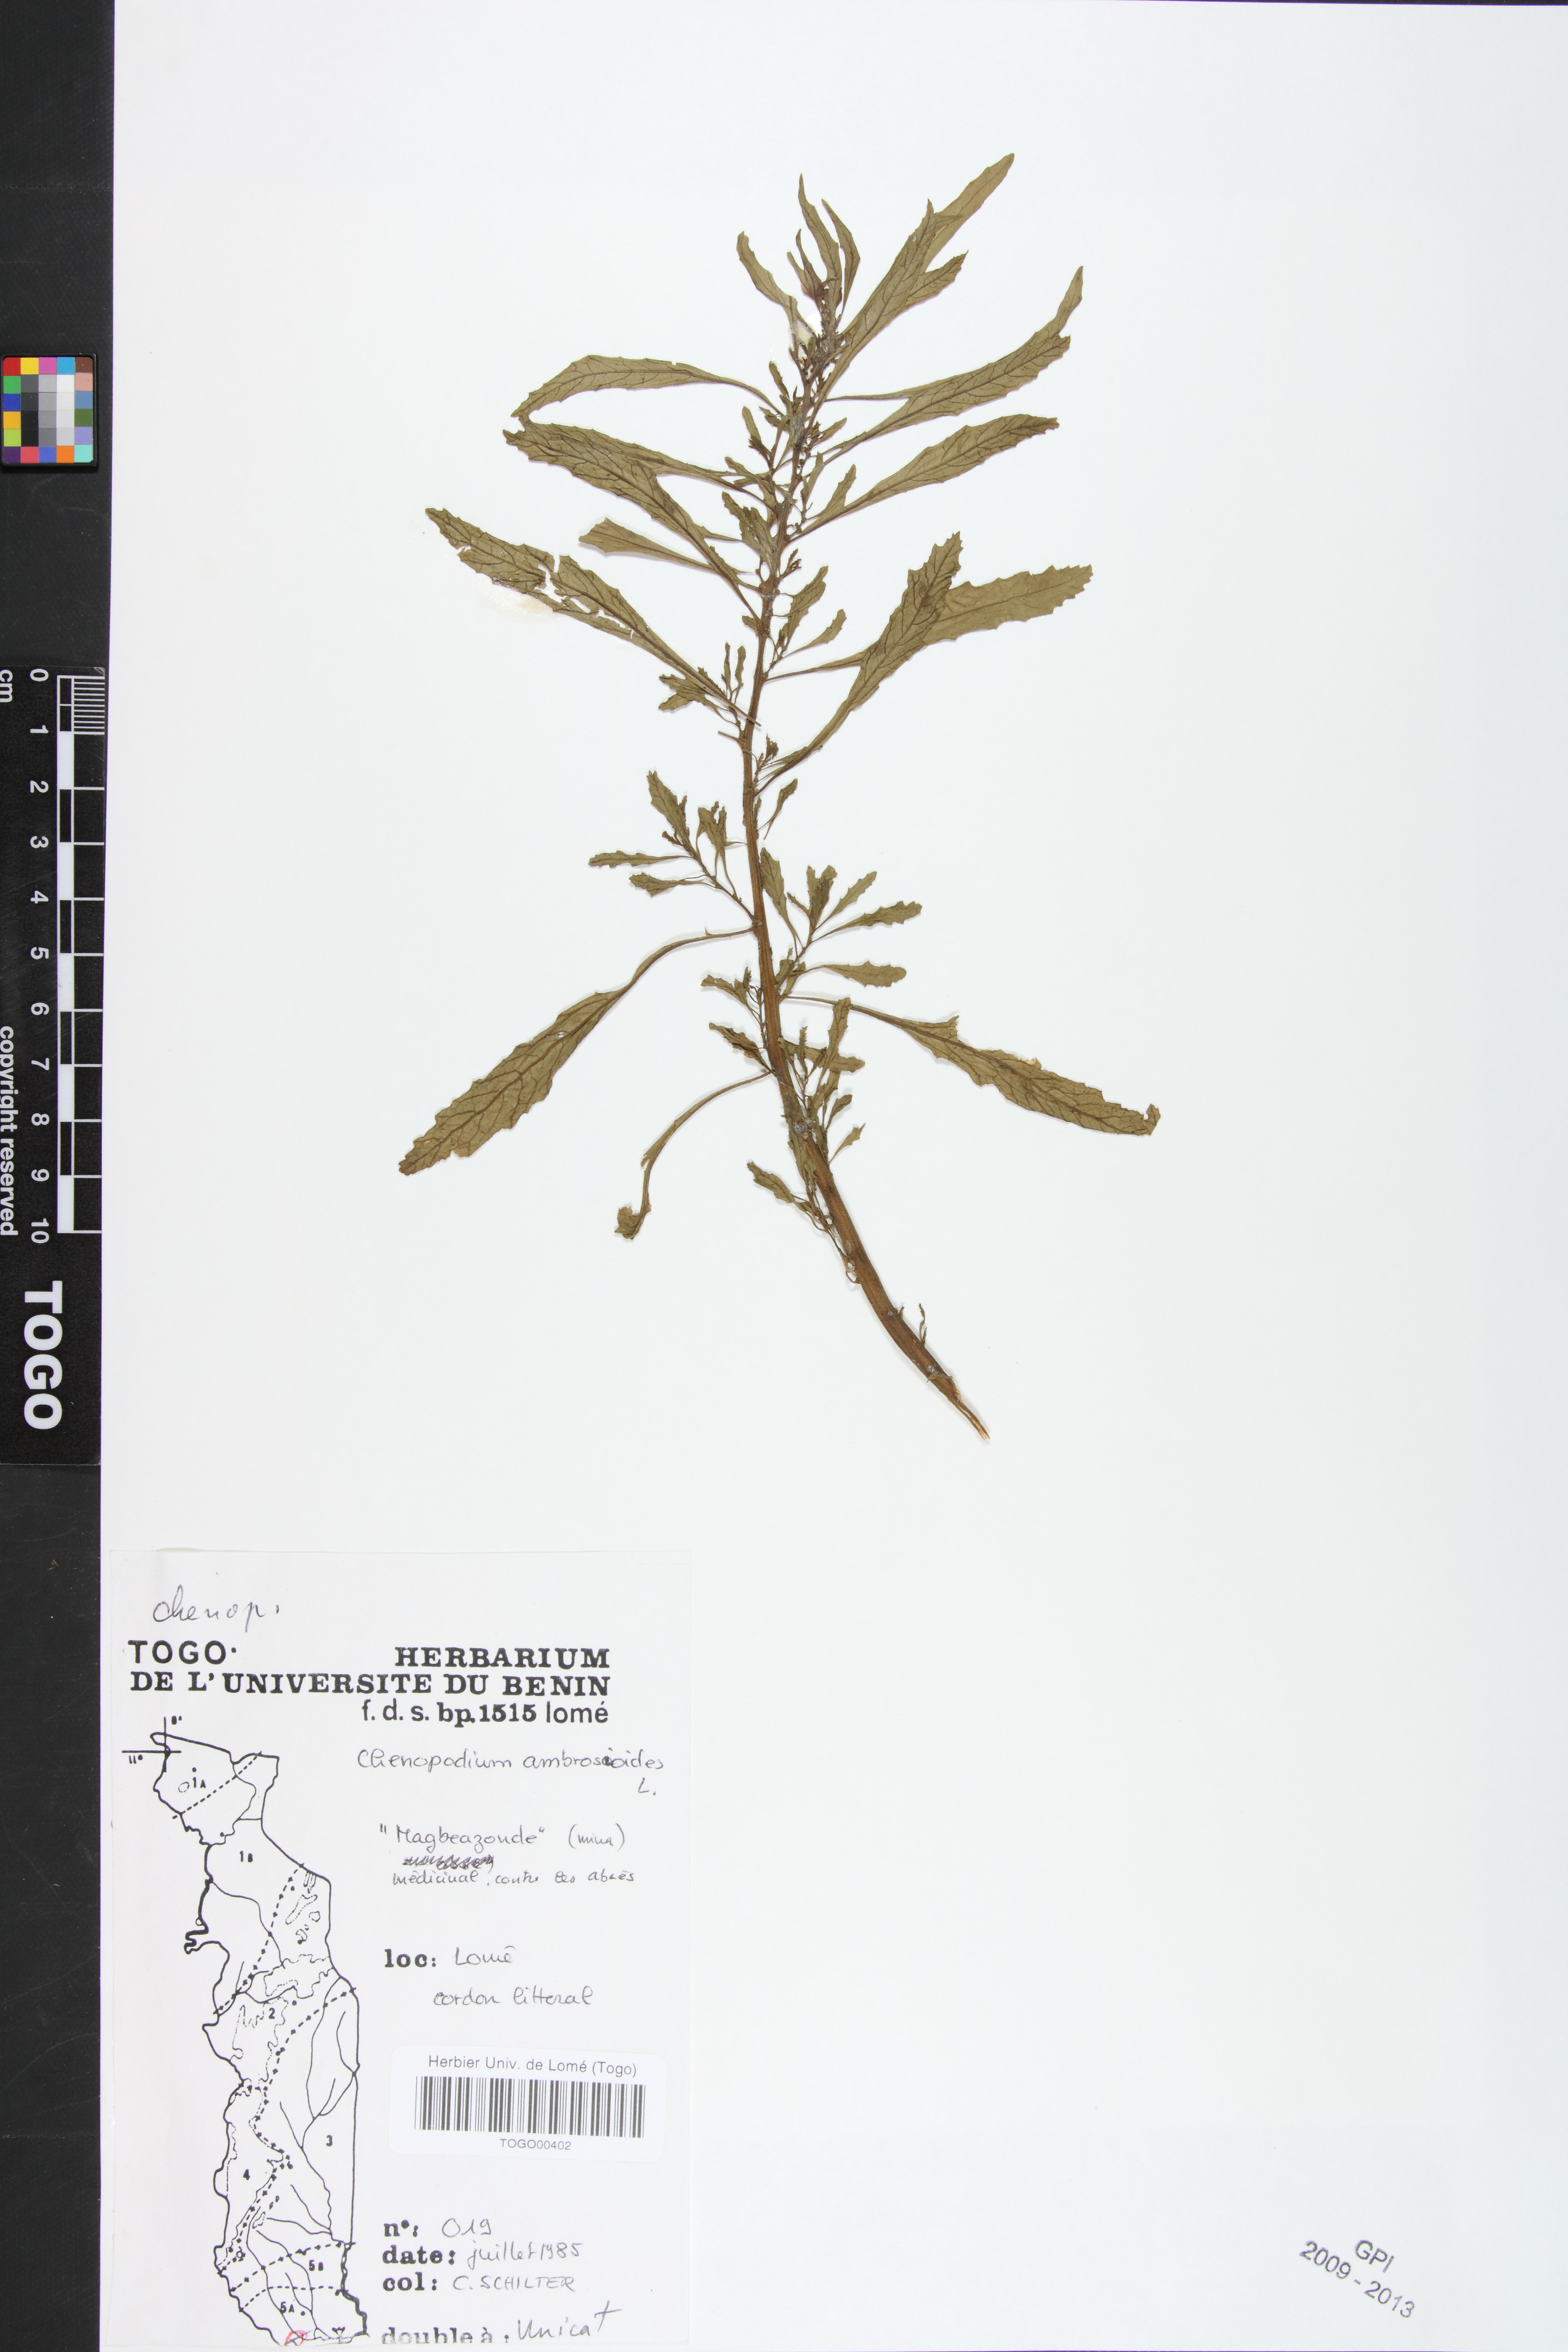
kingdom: Plantae
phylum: Tracheophyta
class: Magnoliopsida
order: Caryophyllales
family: Amaranthaceae
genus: Dysphania
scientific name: Dysphania ambrosioides
